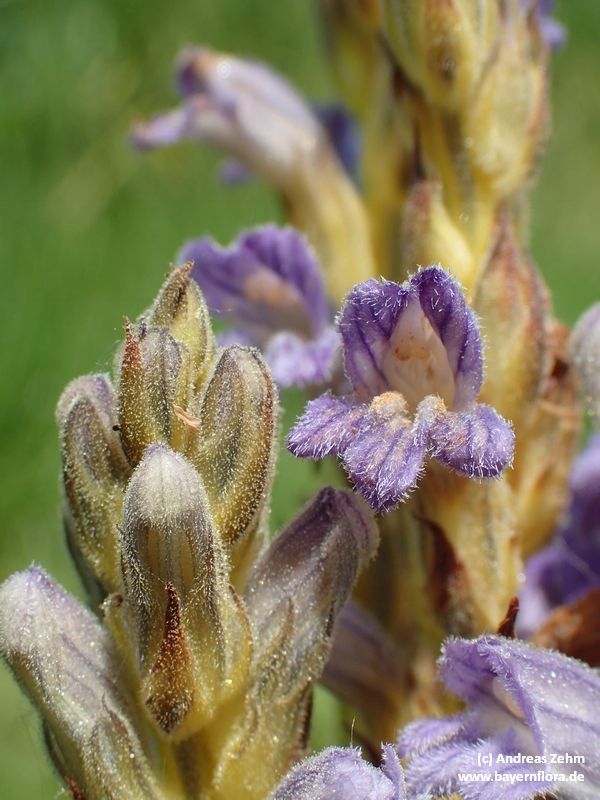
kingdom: Plantae
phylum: Tracheophyta
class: Magnoliopsida
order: Lamiales
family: Orobanchaceae
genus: Phelipanche
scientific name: Phelipanche purpurea
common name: Purple broomrape
